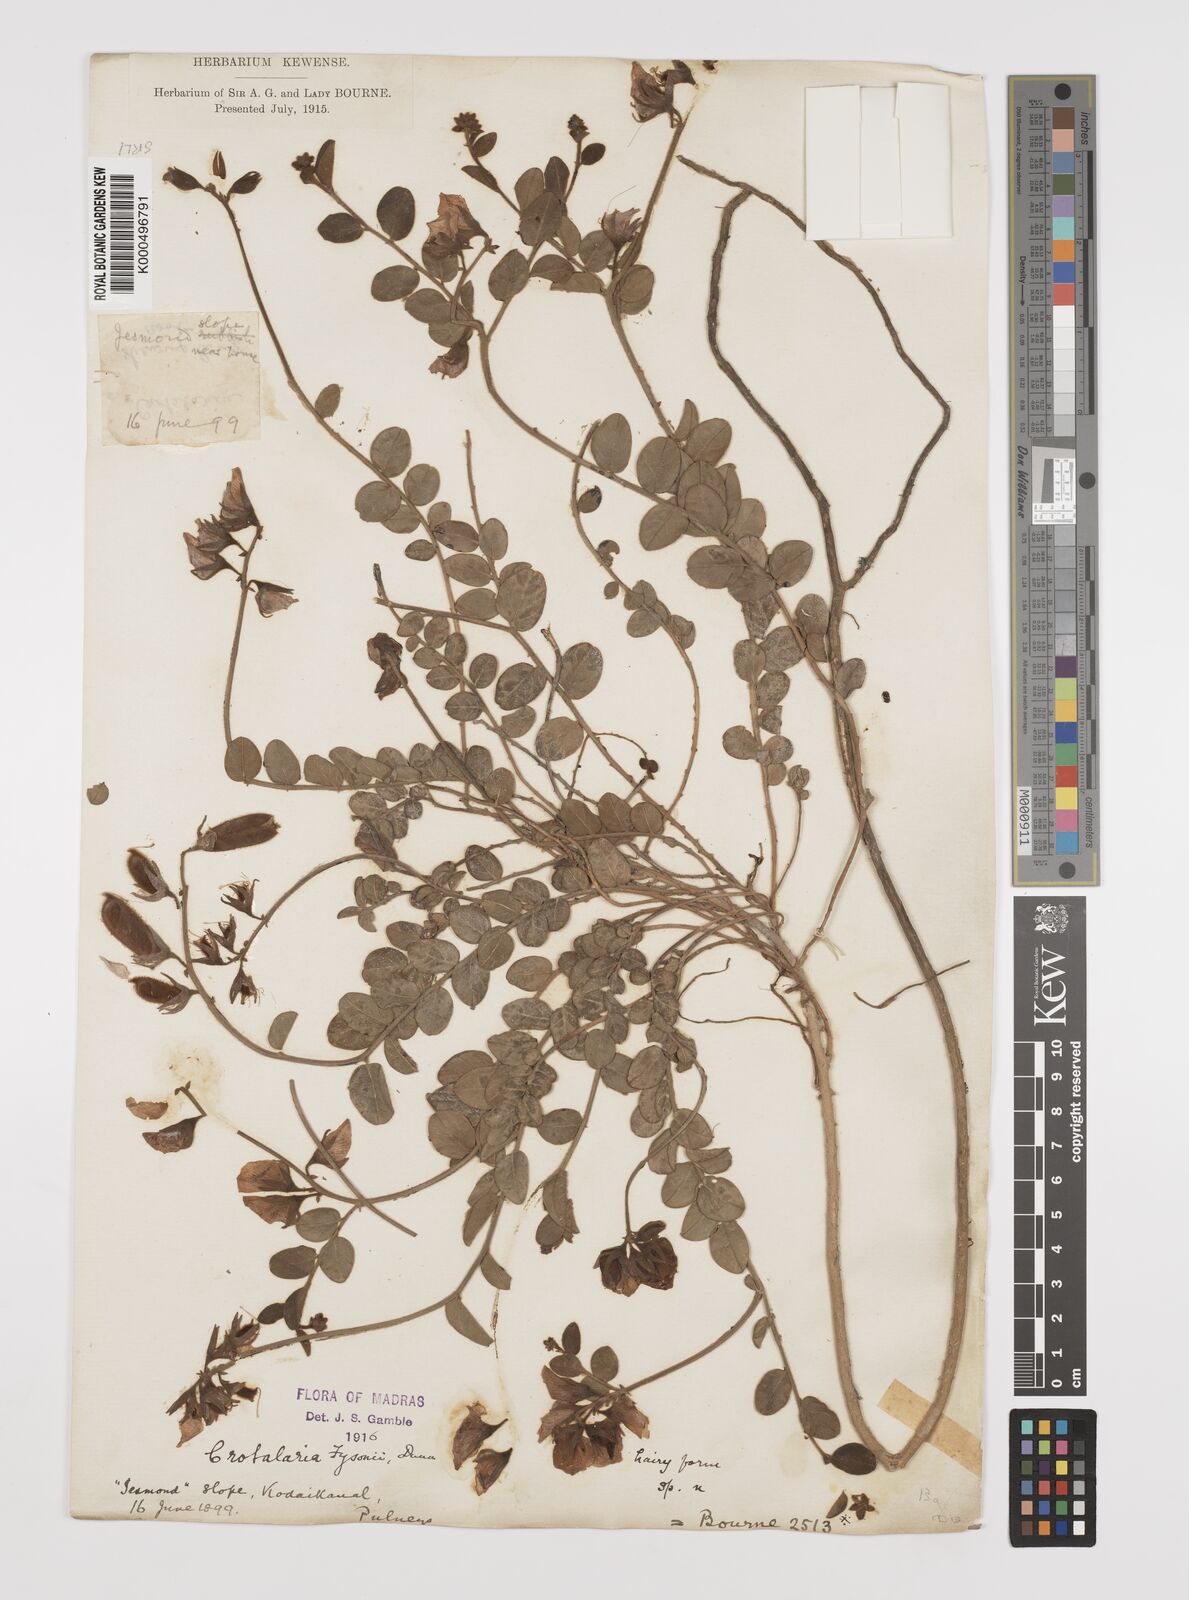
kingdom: Plantae
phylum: Tracheophyta
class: Magnoliopsida
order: Fabales
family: Fabaceae
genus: Crotalaria
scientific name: Crotalaria fysonii
